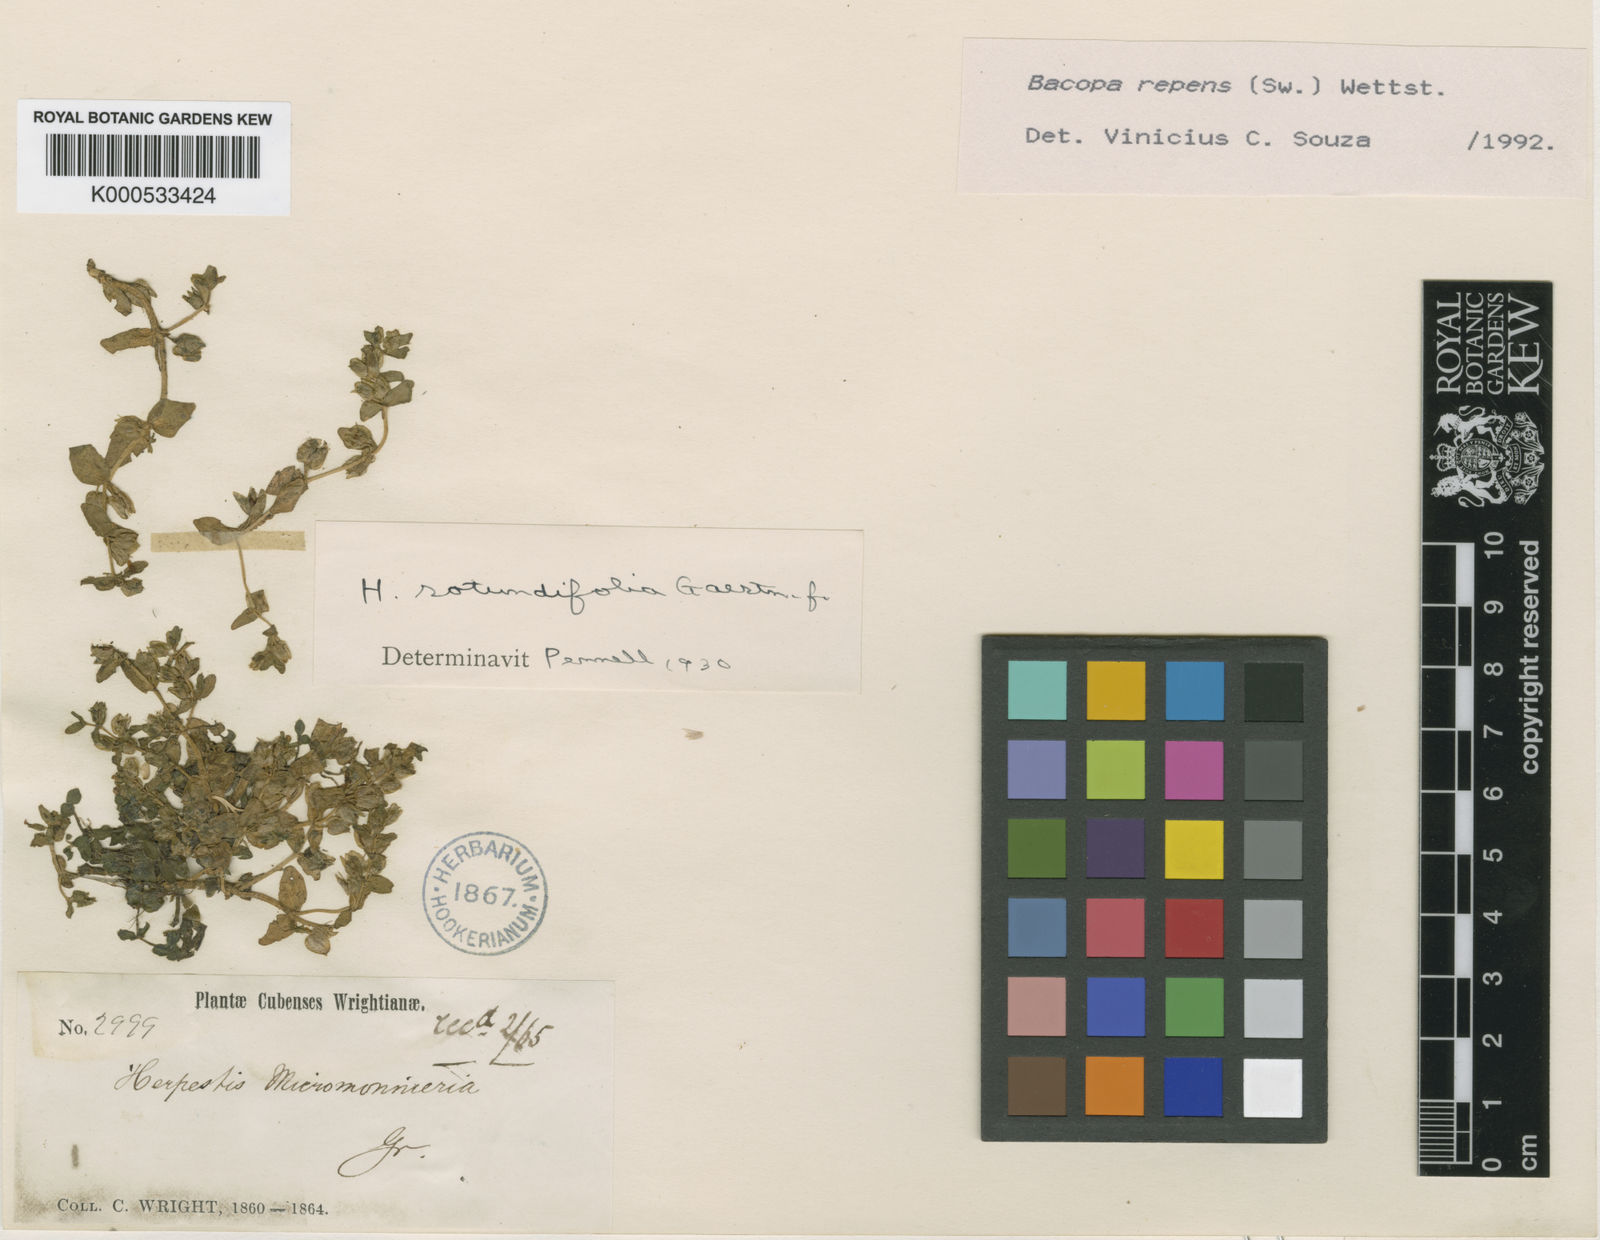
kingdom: Plantae
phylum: Tracheophyta
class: Magnoliopsida
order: Lamiales
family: Plantaginaceae
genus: Bacopa
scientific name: Bacopa repens
